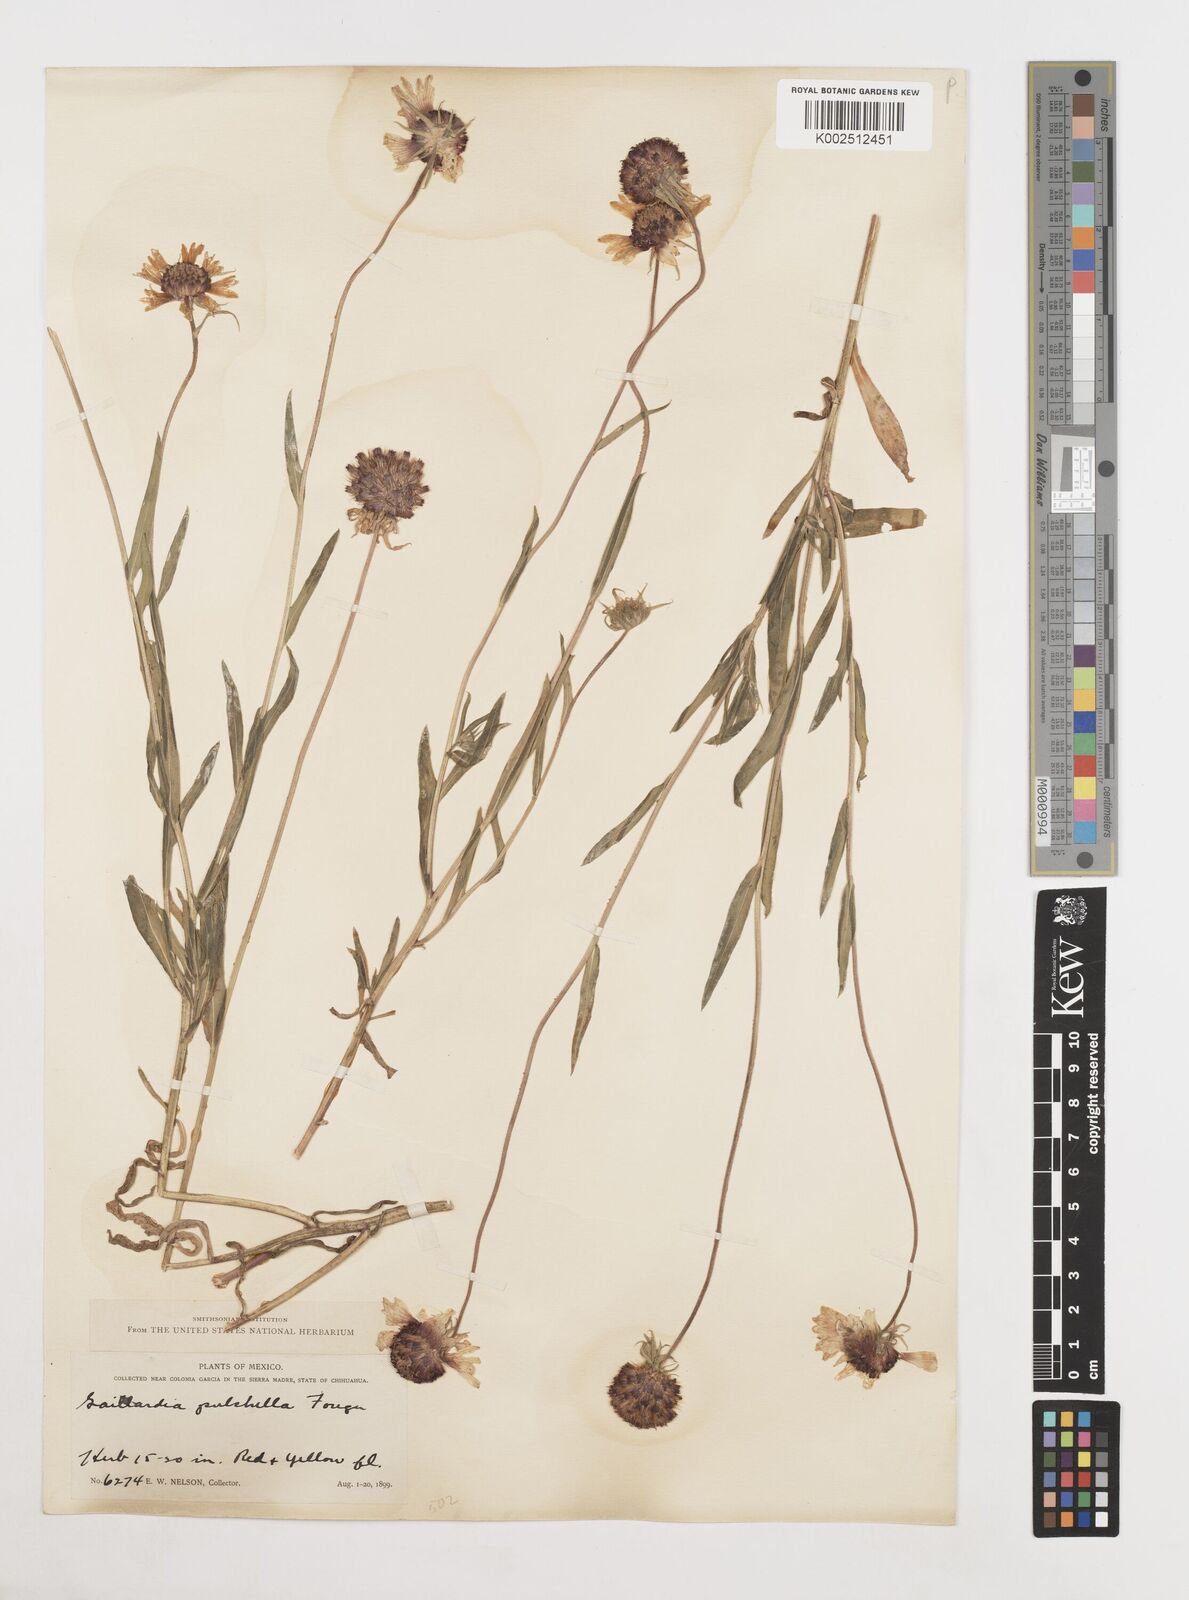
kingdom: Plantae
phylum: Tracheophyta
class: Magnoliopsida
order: Asterales
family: Asteraceae
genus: Gaillardia
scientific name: Gaillardia pulchella
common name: Firewheel
